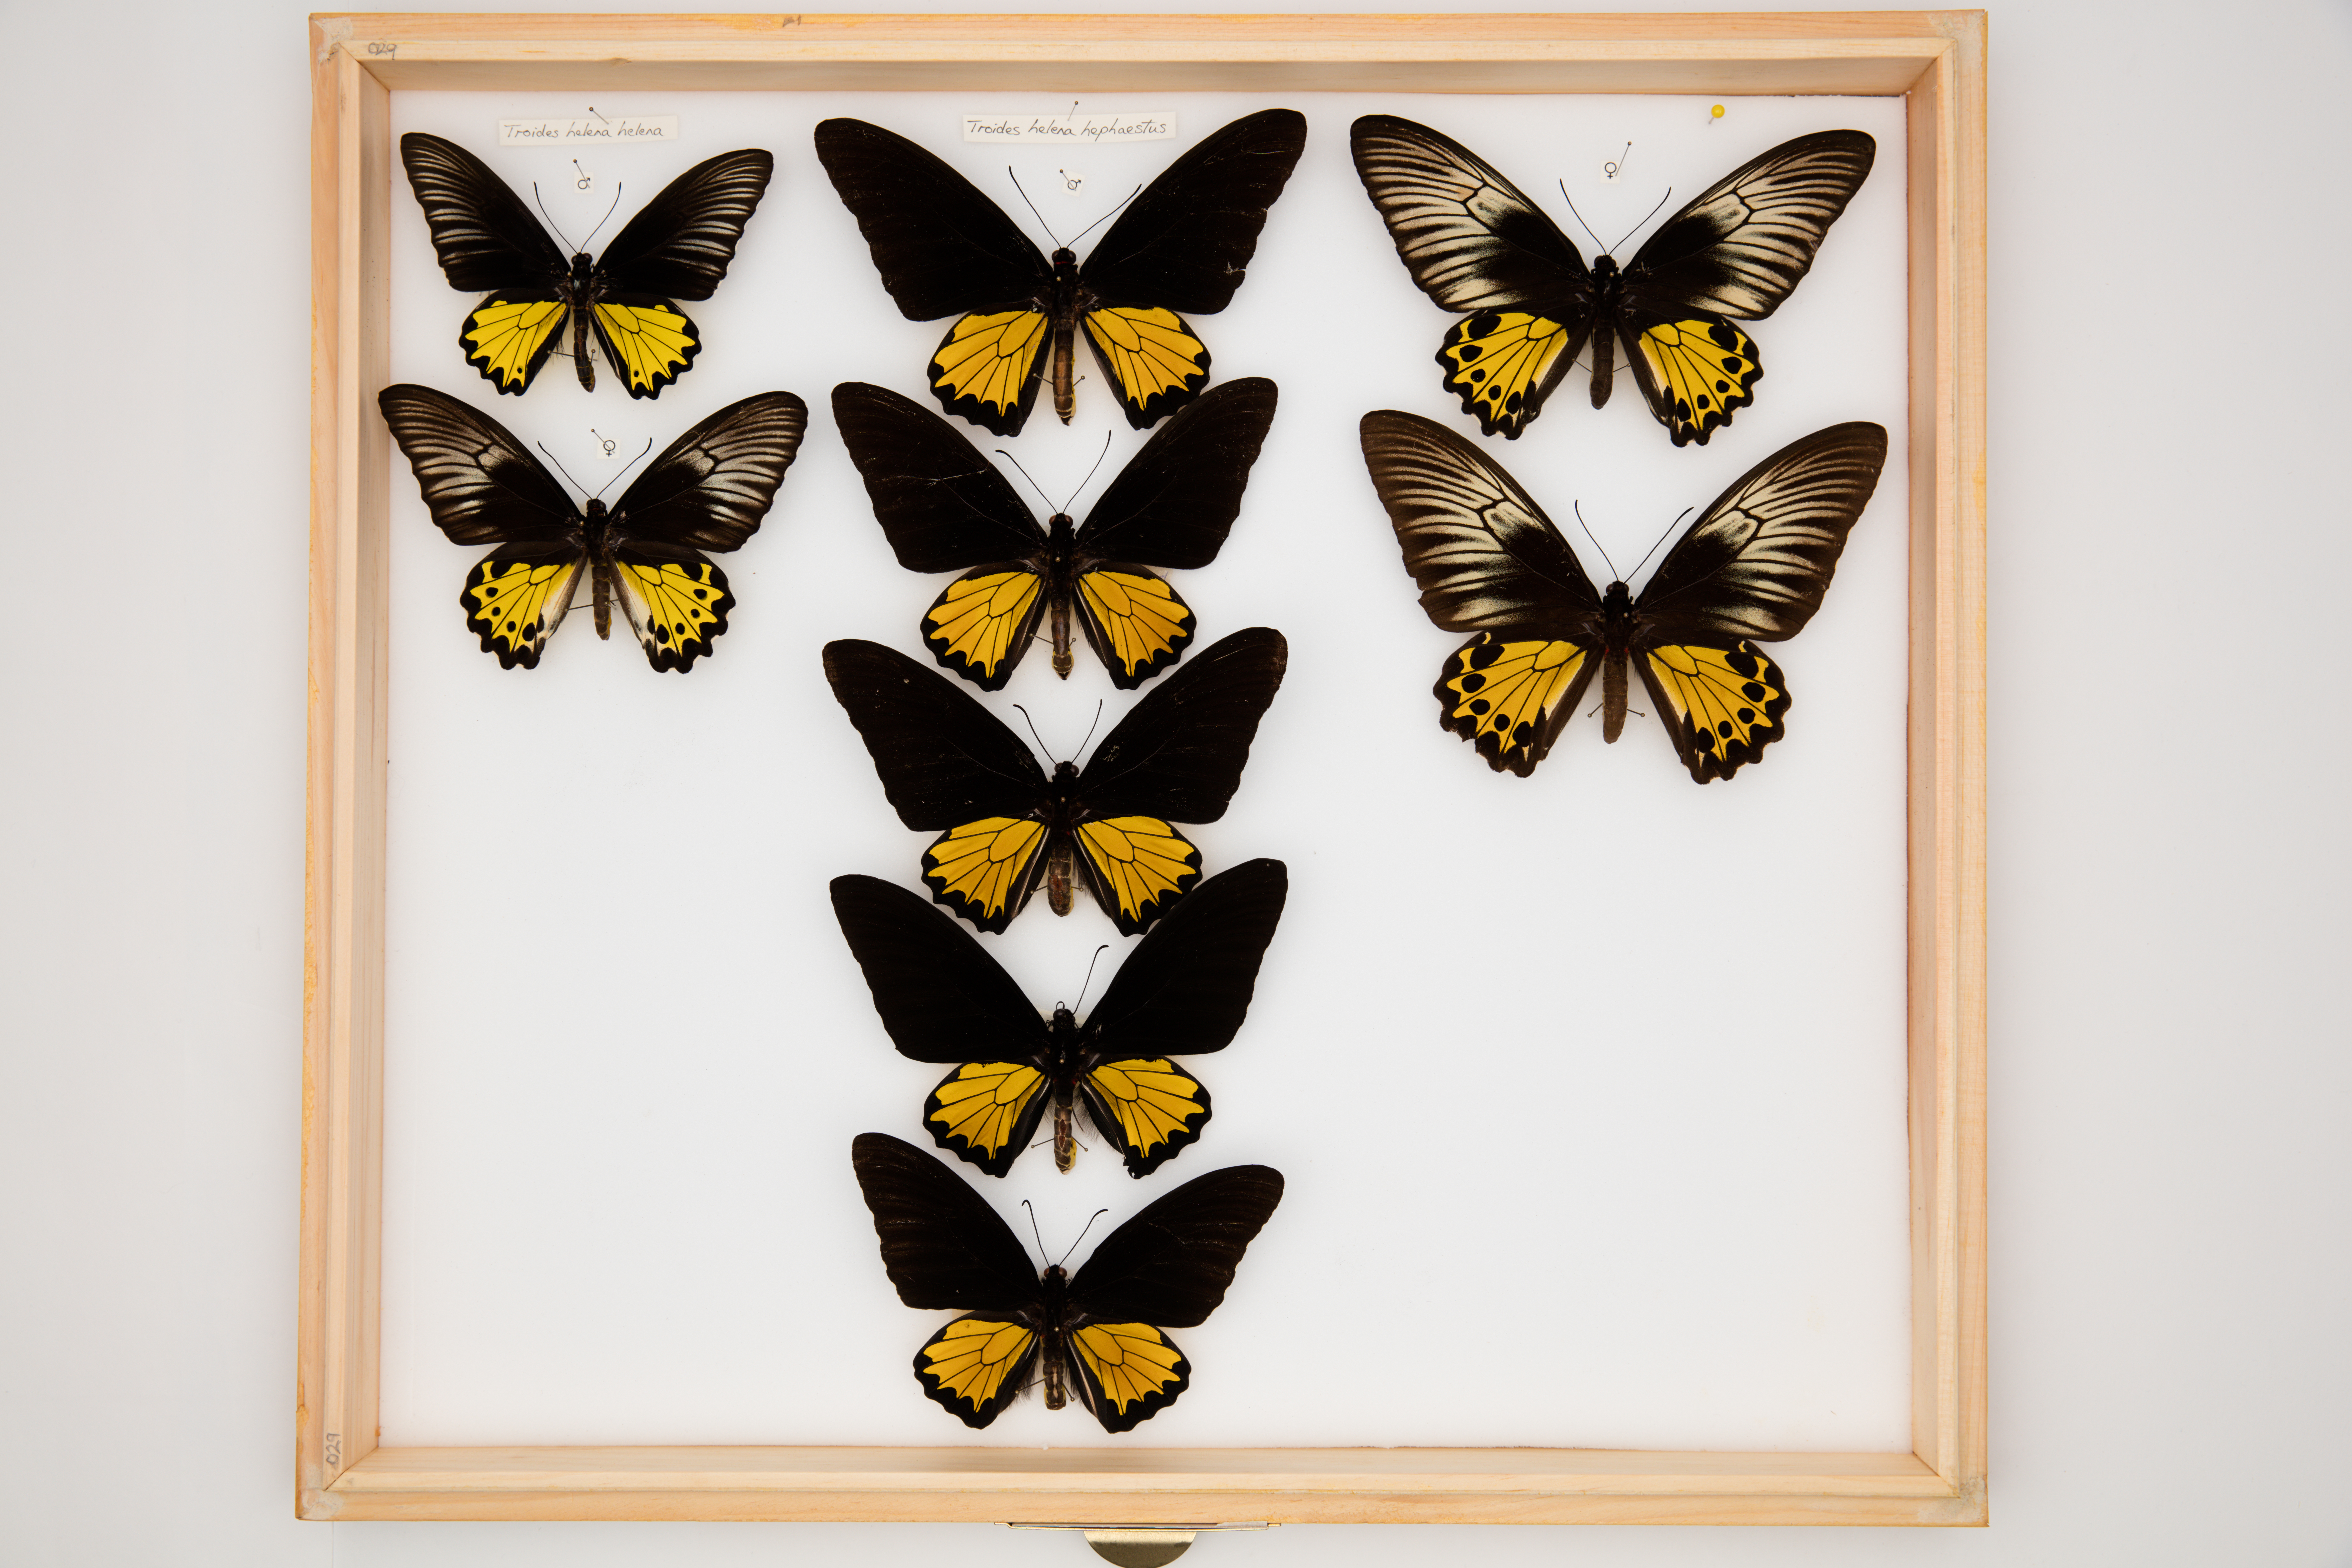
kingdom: Animalia
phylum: Arthropoda
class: Insecta
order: Lepidoptera
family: Papilionidae
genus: Troides
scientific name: Troides helena
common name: Common birdwing
